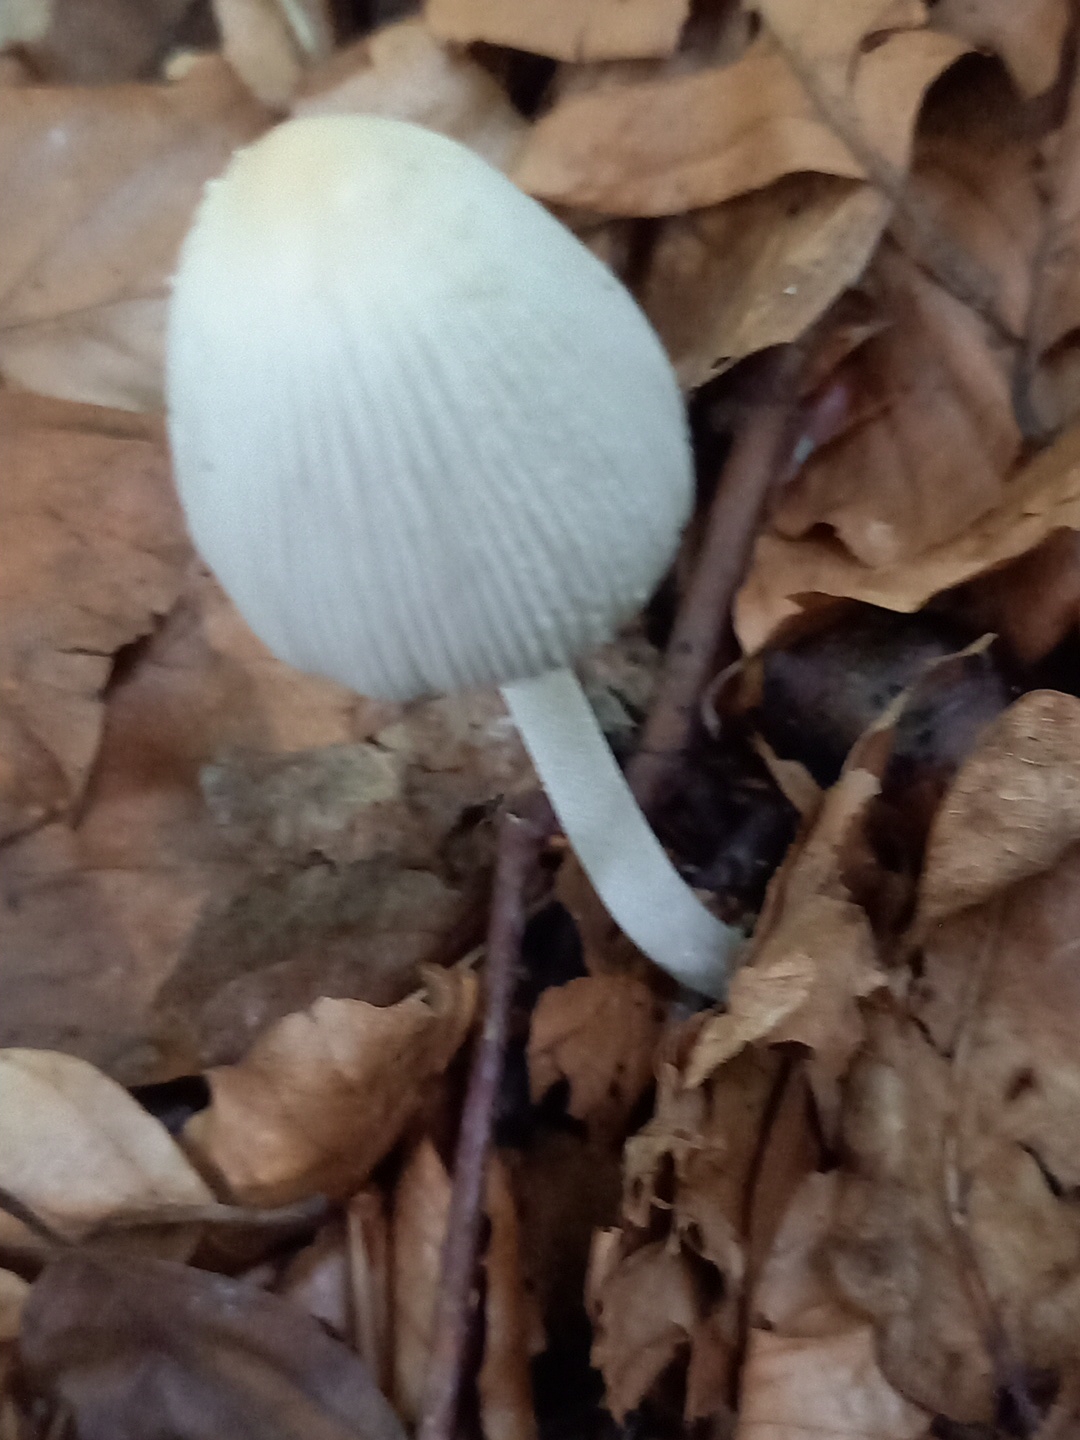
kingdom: Fungi
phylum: Basidiomycota
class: Agaricomycetes
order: Agaricales
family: Psathyrellaceae
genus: Coprinellus
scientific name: Coprinellus
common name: blækhat
